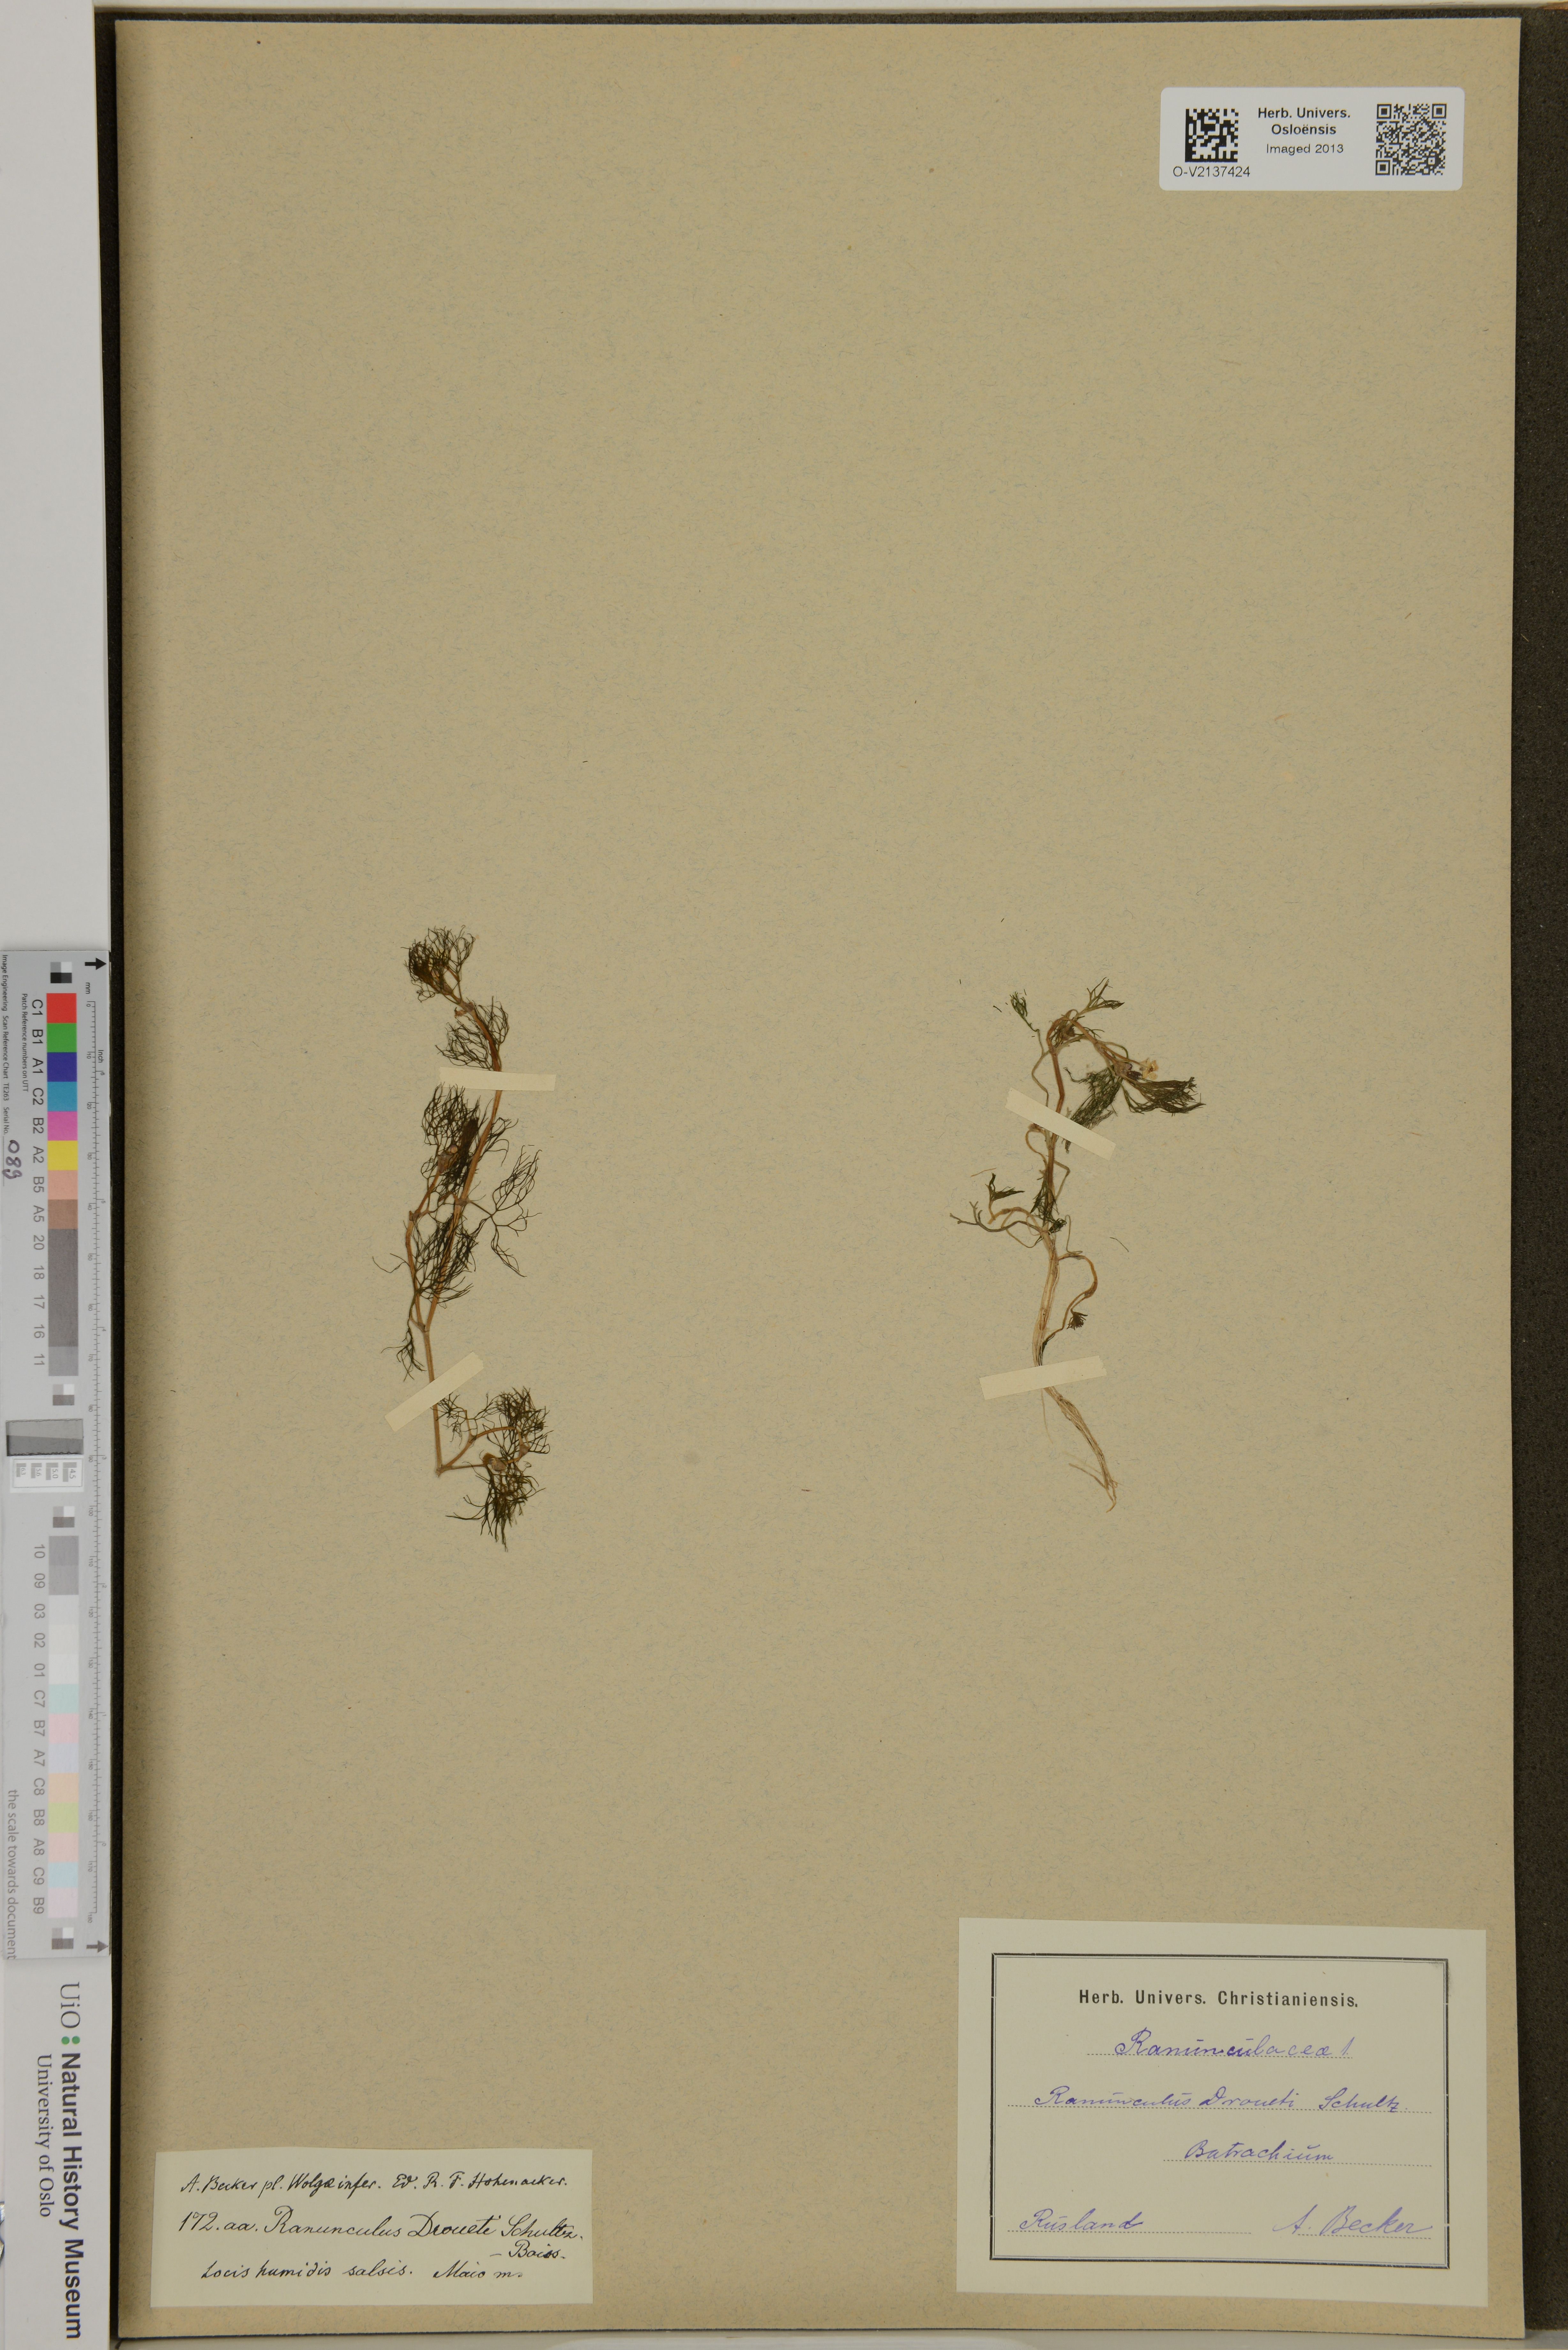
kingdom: Plantae
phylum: Tracheophyta
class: Magnoliopsida
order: Ranunculales
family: Ranunculaceae
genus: Ranunculus
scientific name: Ranunculus
